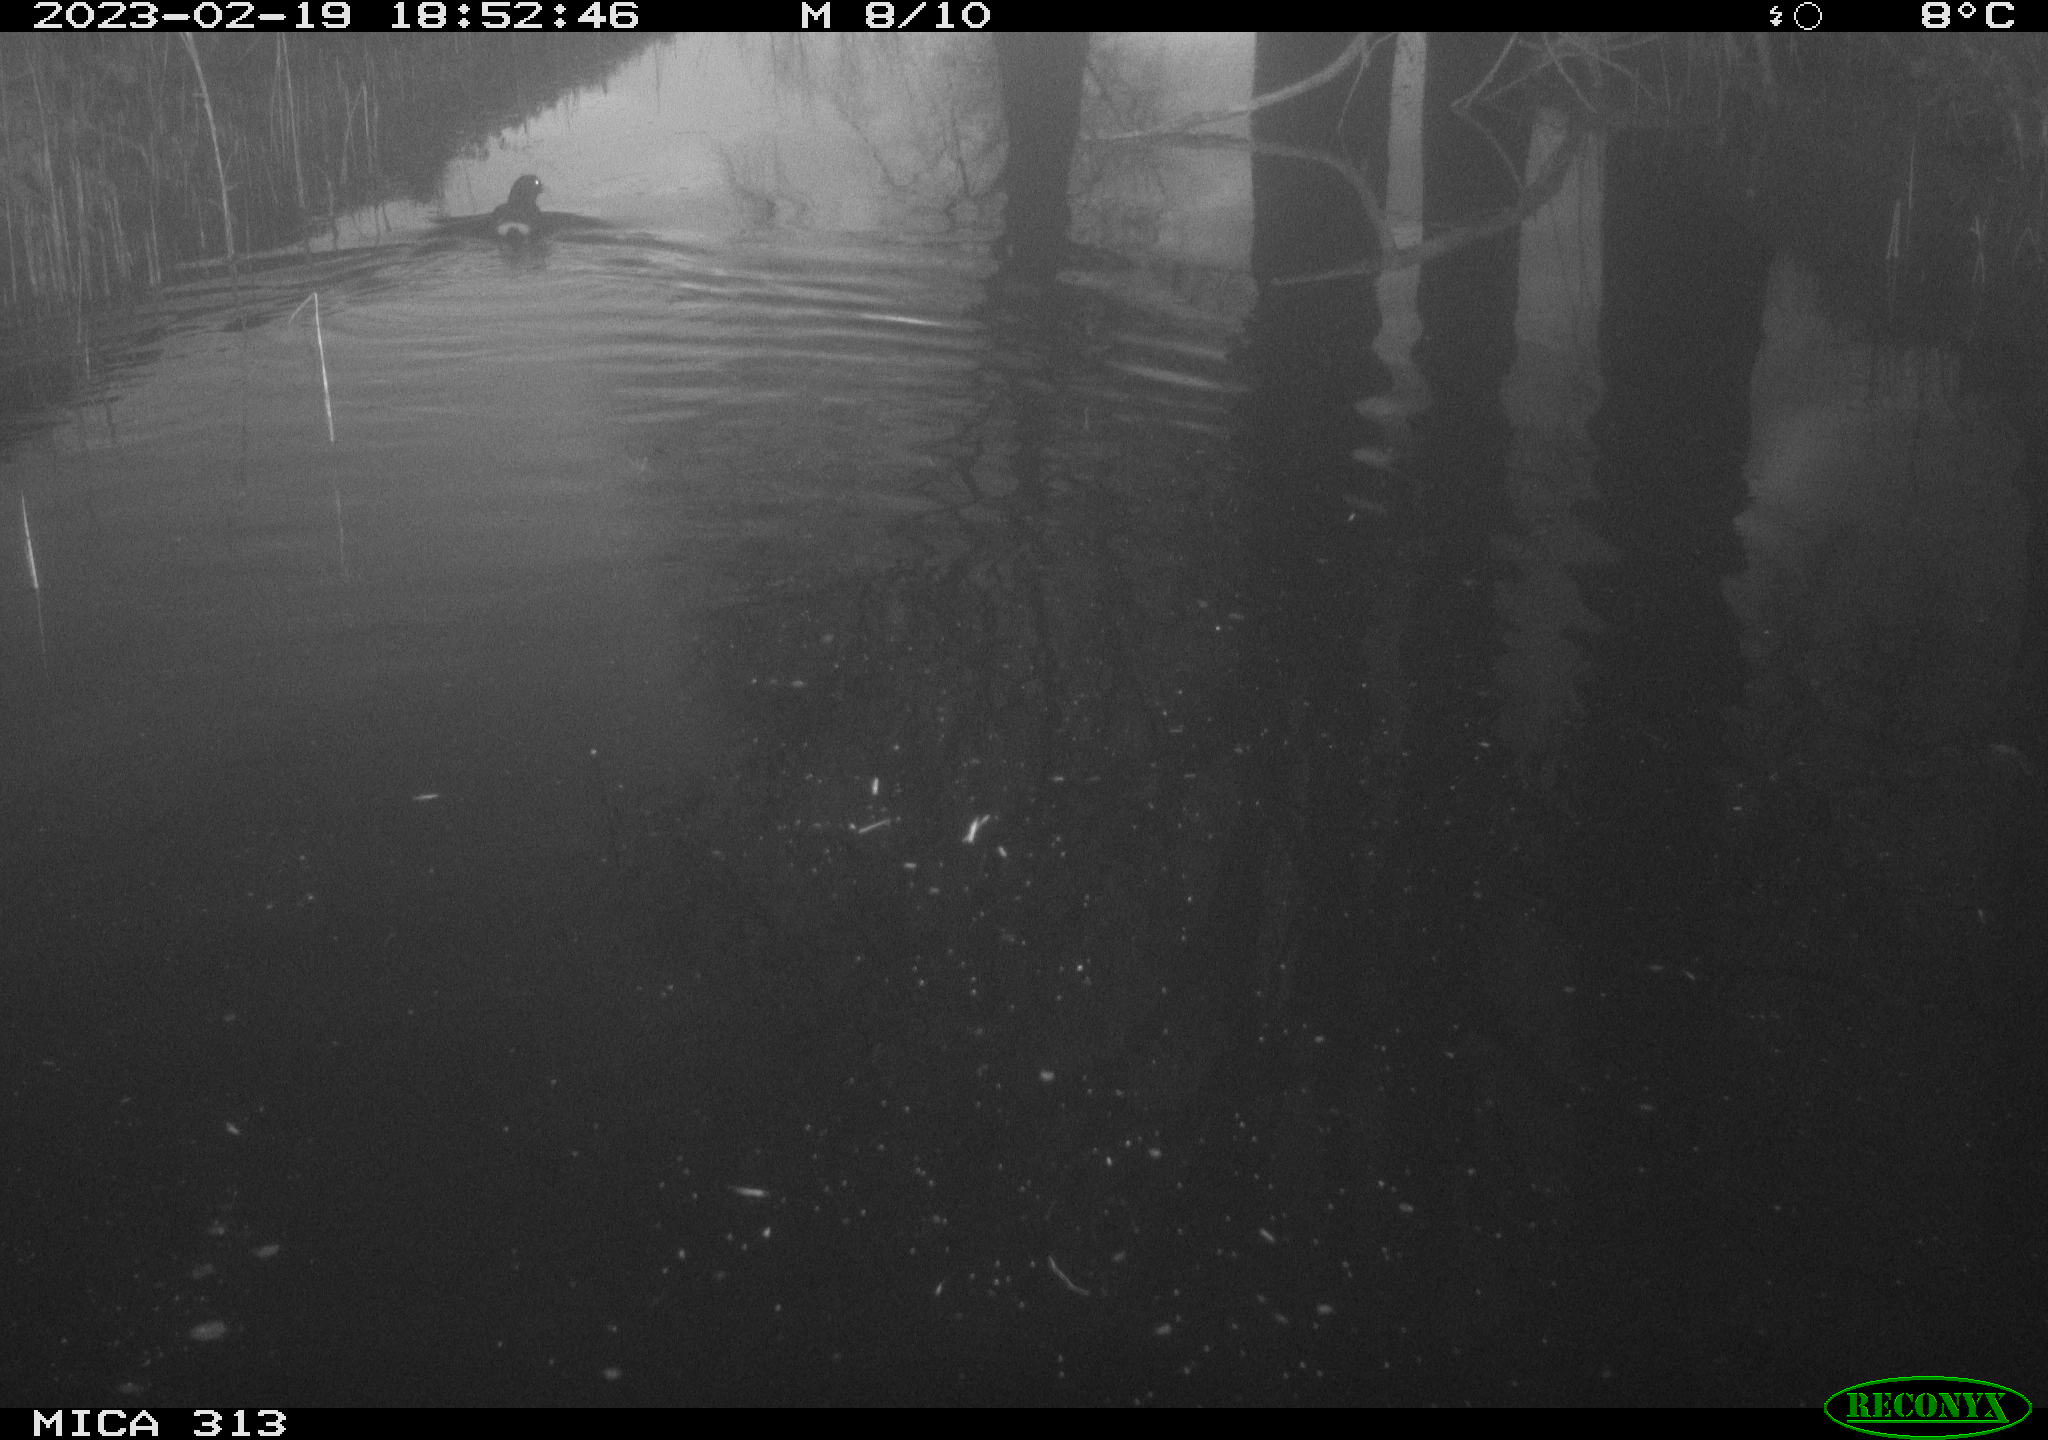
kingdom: Animalia
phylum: Chordata
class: Aves
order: Gruiformes
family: Rallidae
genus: Gallinula
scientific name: Gallinula chloropus
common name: Common moorhen
